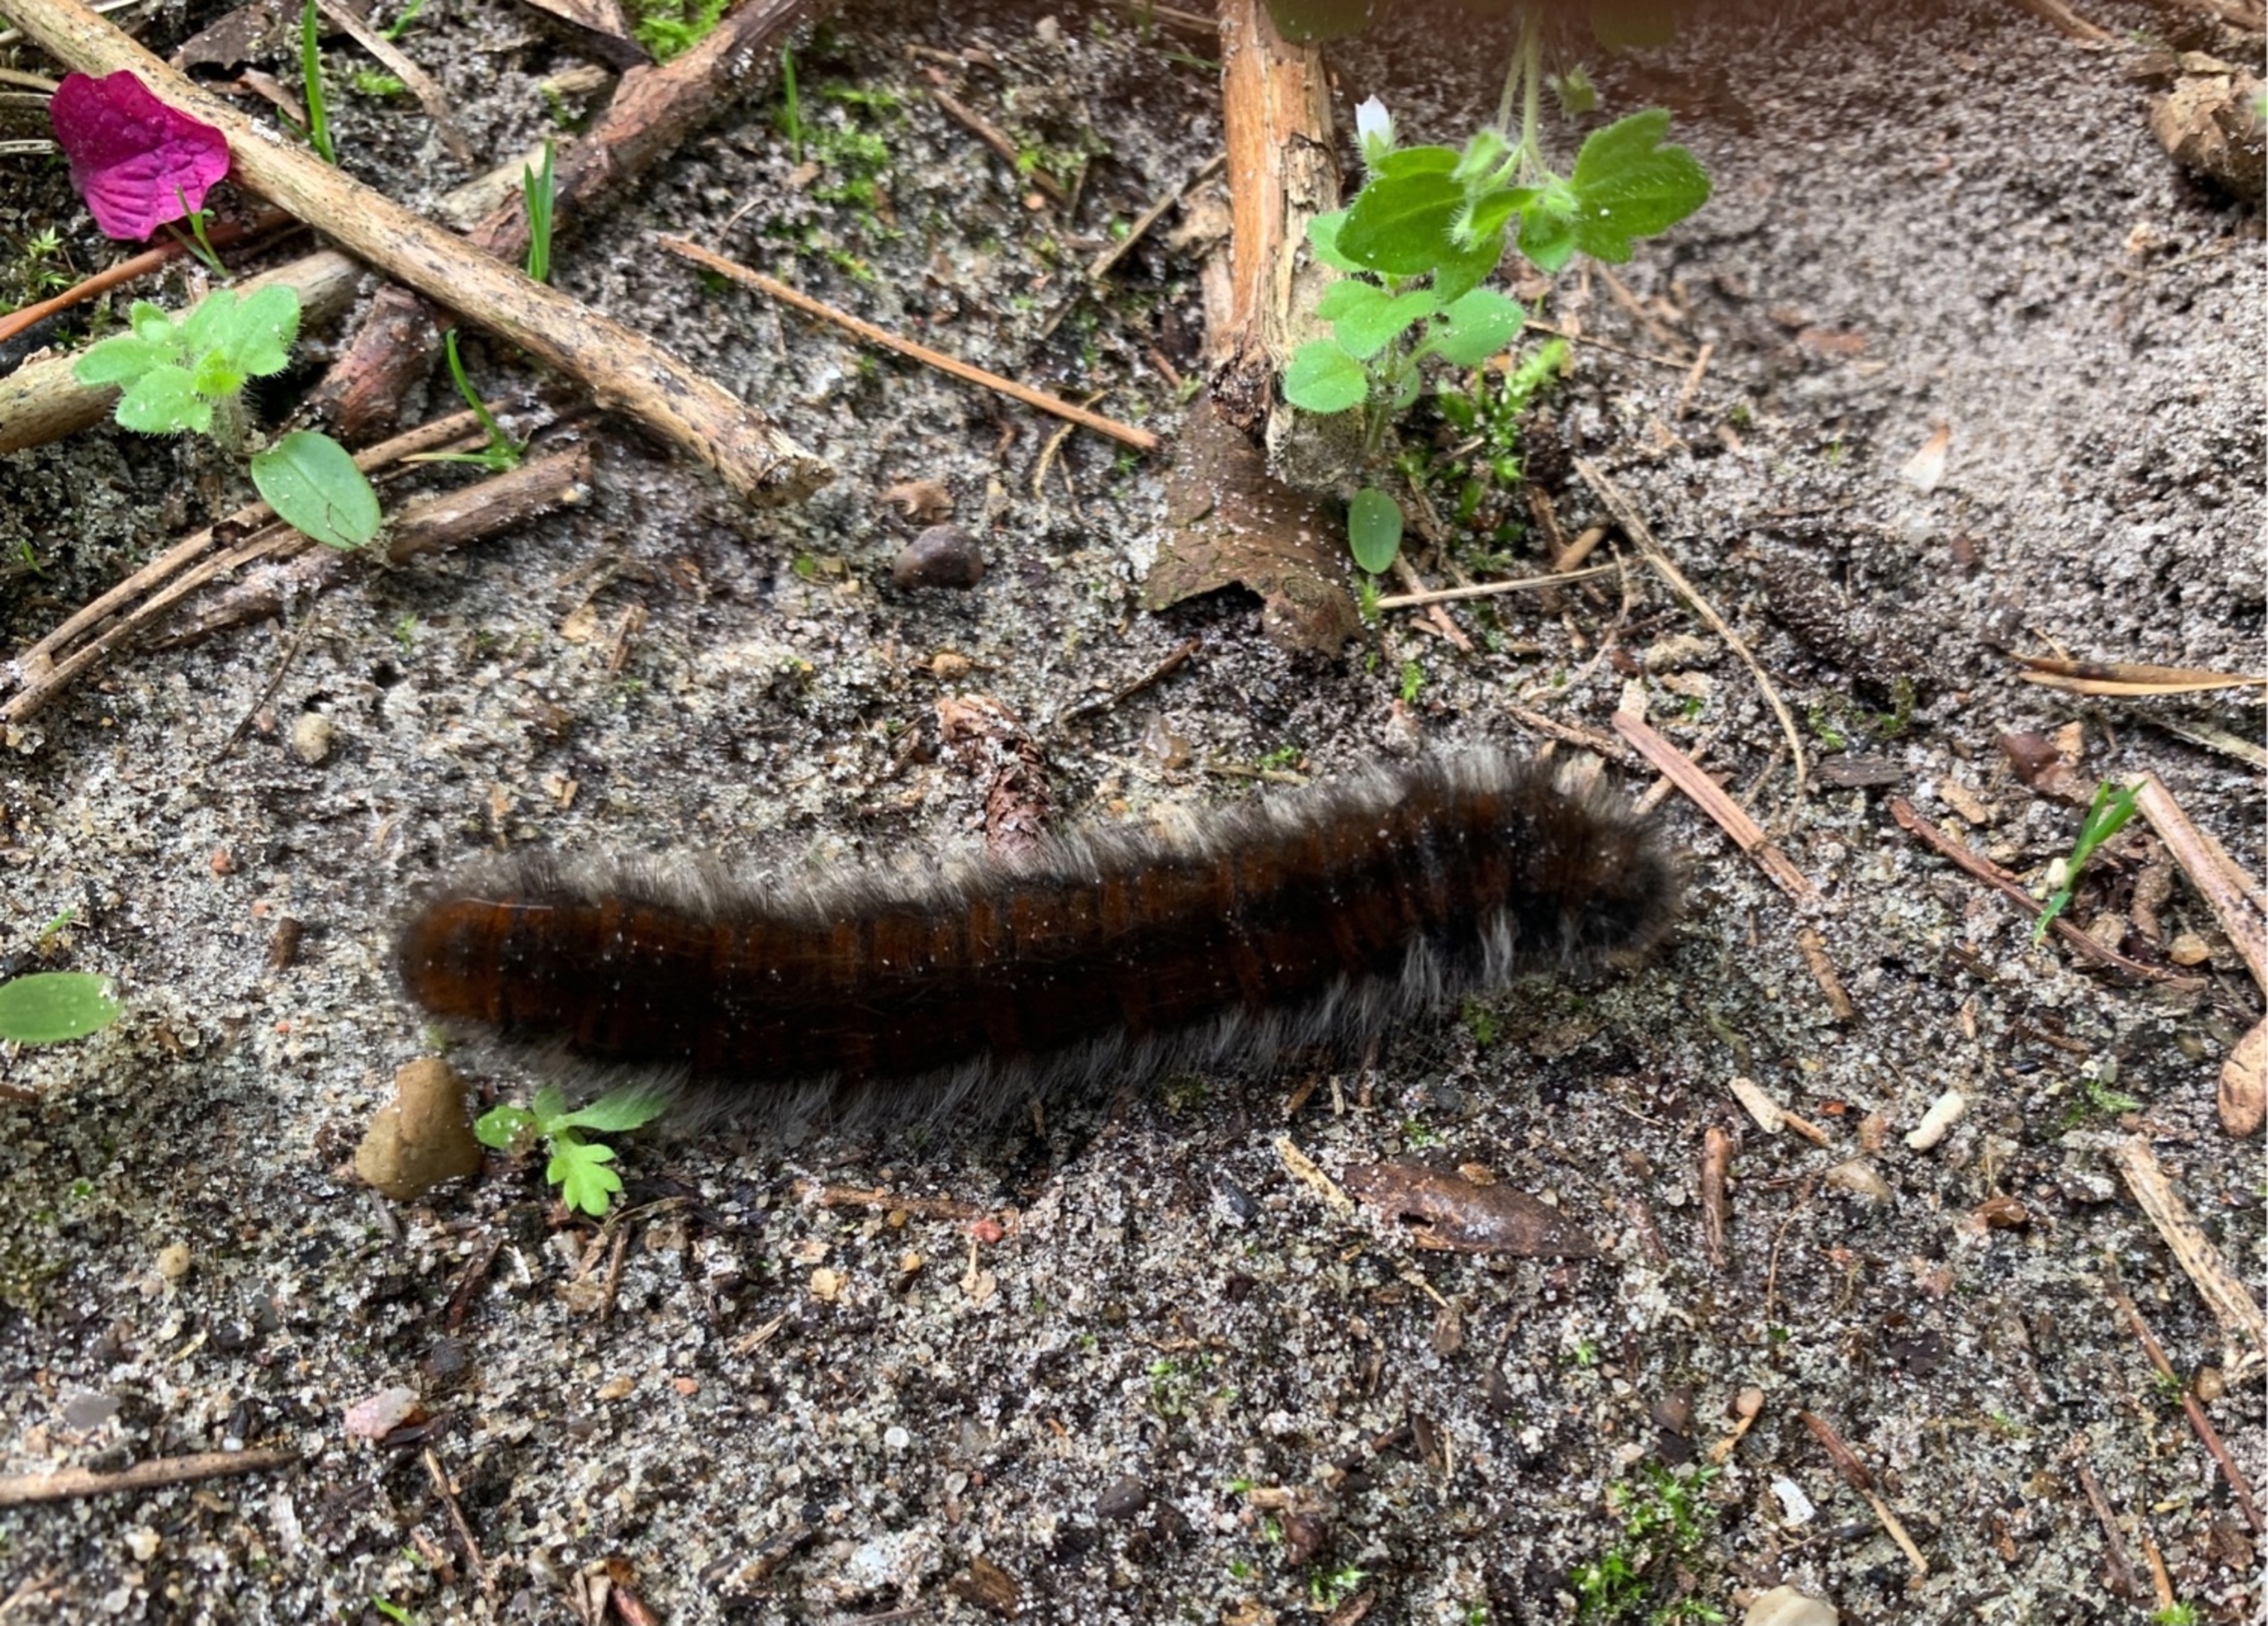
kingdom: Animalia
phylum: Arthropoda
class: Insecta
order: Lepidoptera
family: Lasiocampidae
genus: Macrothylacia
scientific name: Macrothylacia rubi
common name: Brombærspinder
